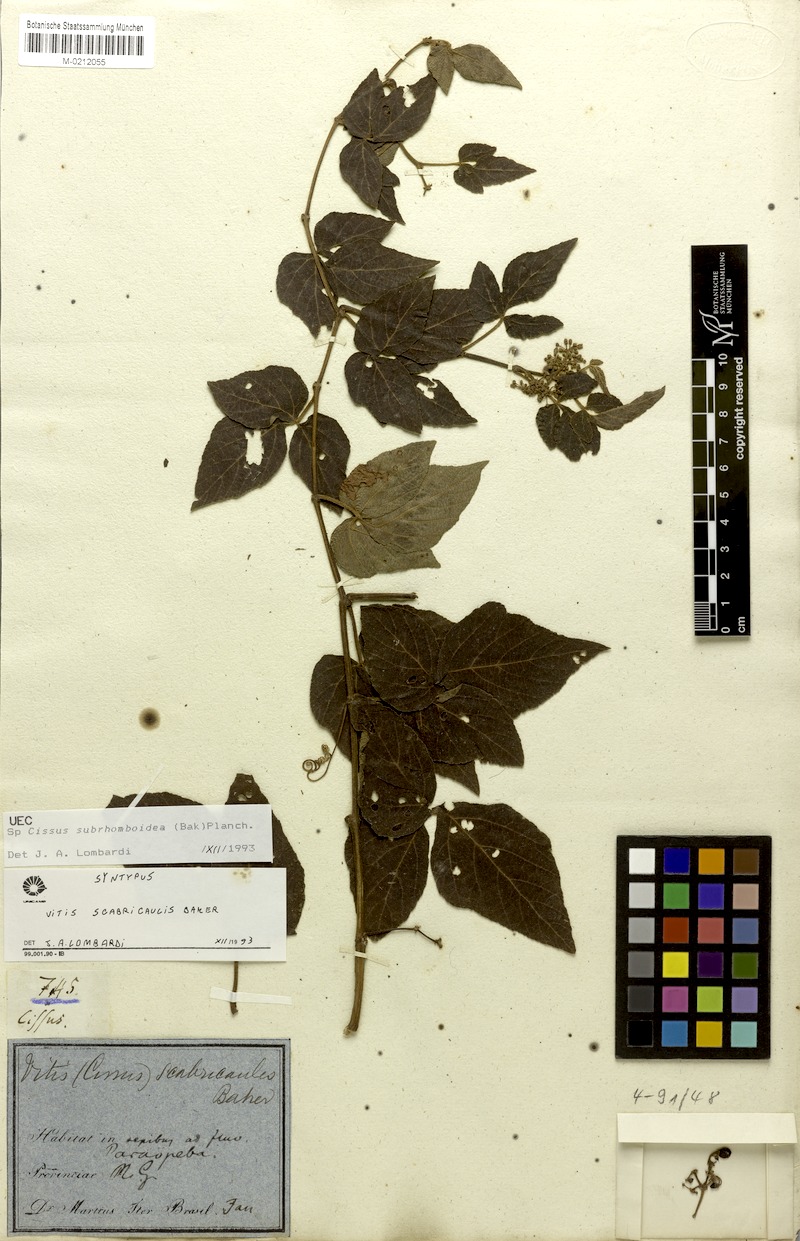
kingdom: Plantae
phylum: Tracheophyta
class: Magnoliopsida
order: Vitales
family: Vitaceae
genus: Cissus
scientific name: Cissus subrhomboidea
